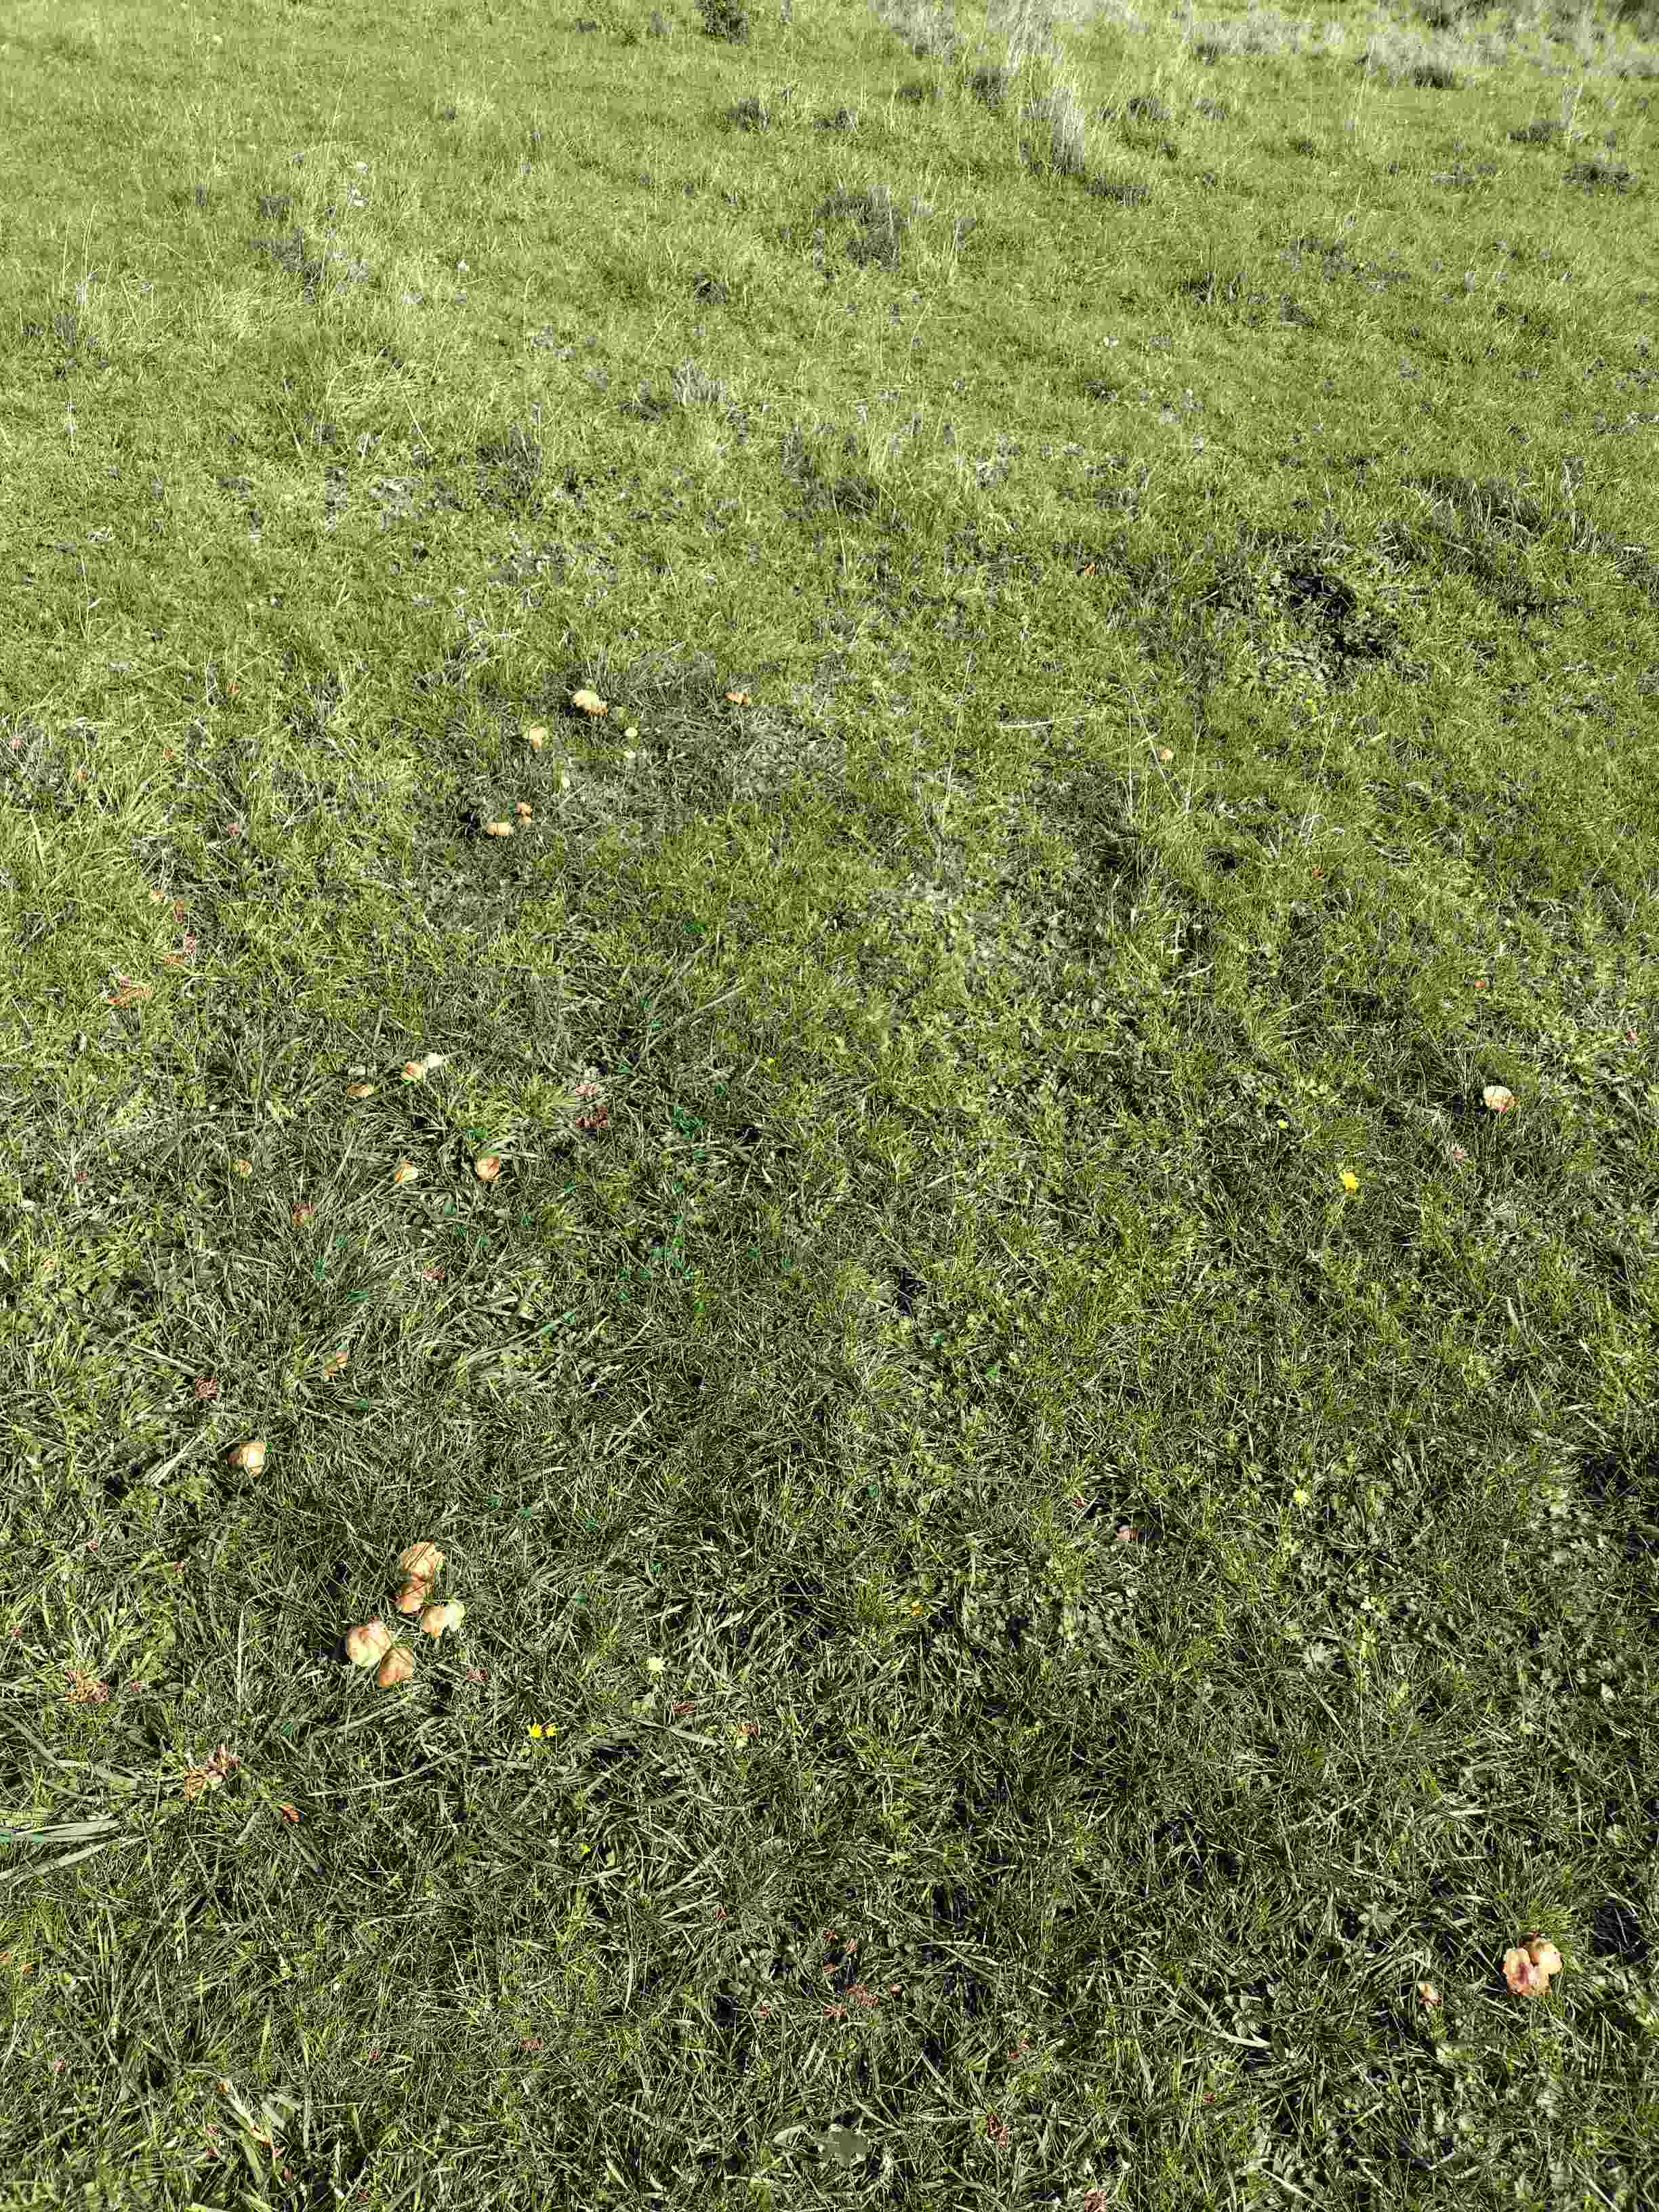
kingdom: Fungi
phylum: Basidiomycota
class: Agaricomycetes
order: Agaricales
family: Marasmiaceae
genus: Marasmius
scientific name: Marasmius oreades
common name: elledans-bruskhat
